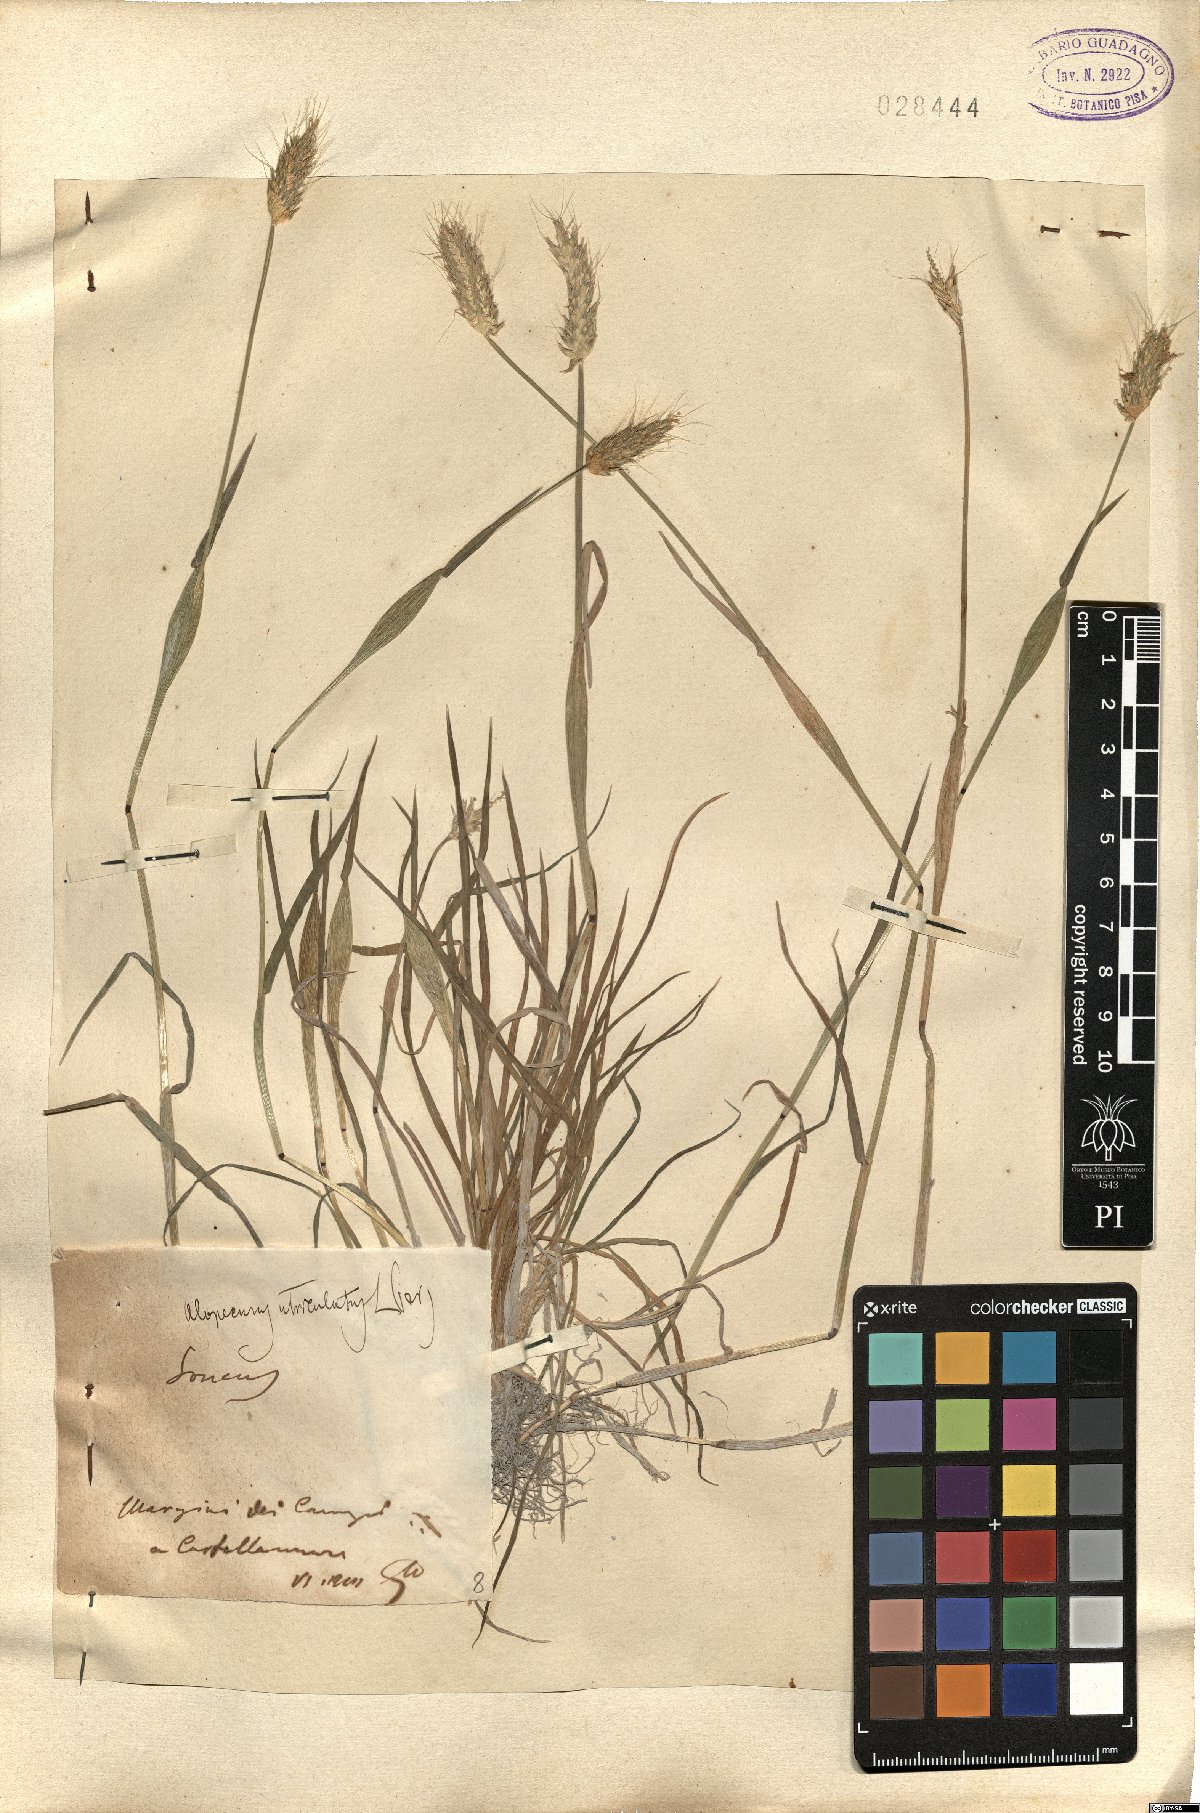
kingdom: Plantae
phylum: Tracheophyta
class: Liliopsida
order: Poales
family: Poaceae
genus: Alopecurus
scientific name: Alopecurus rendlei
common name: Rendle's meadow foxtail
